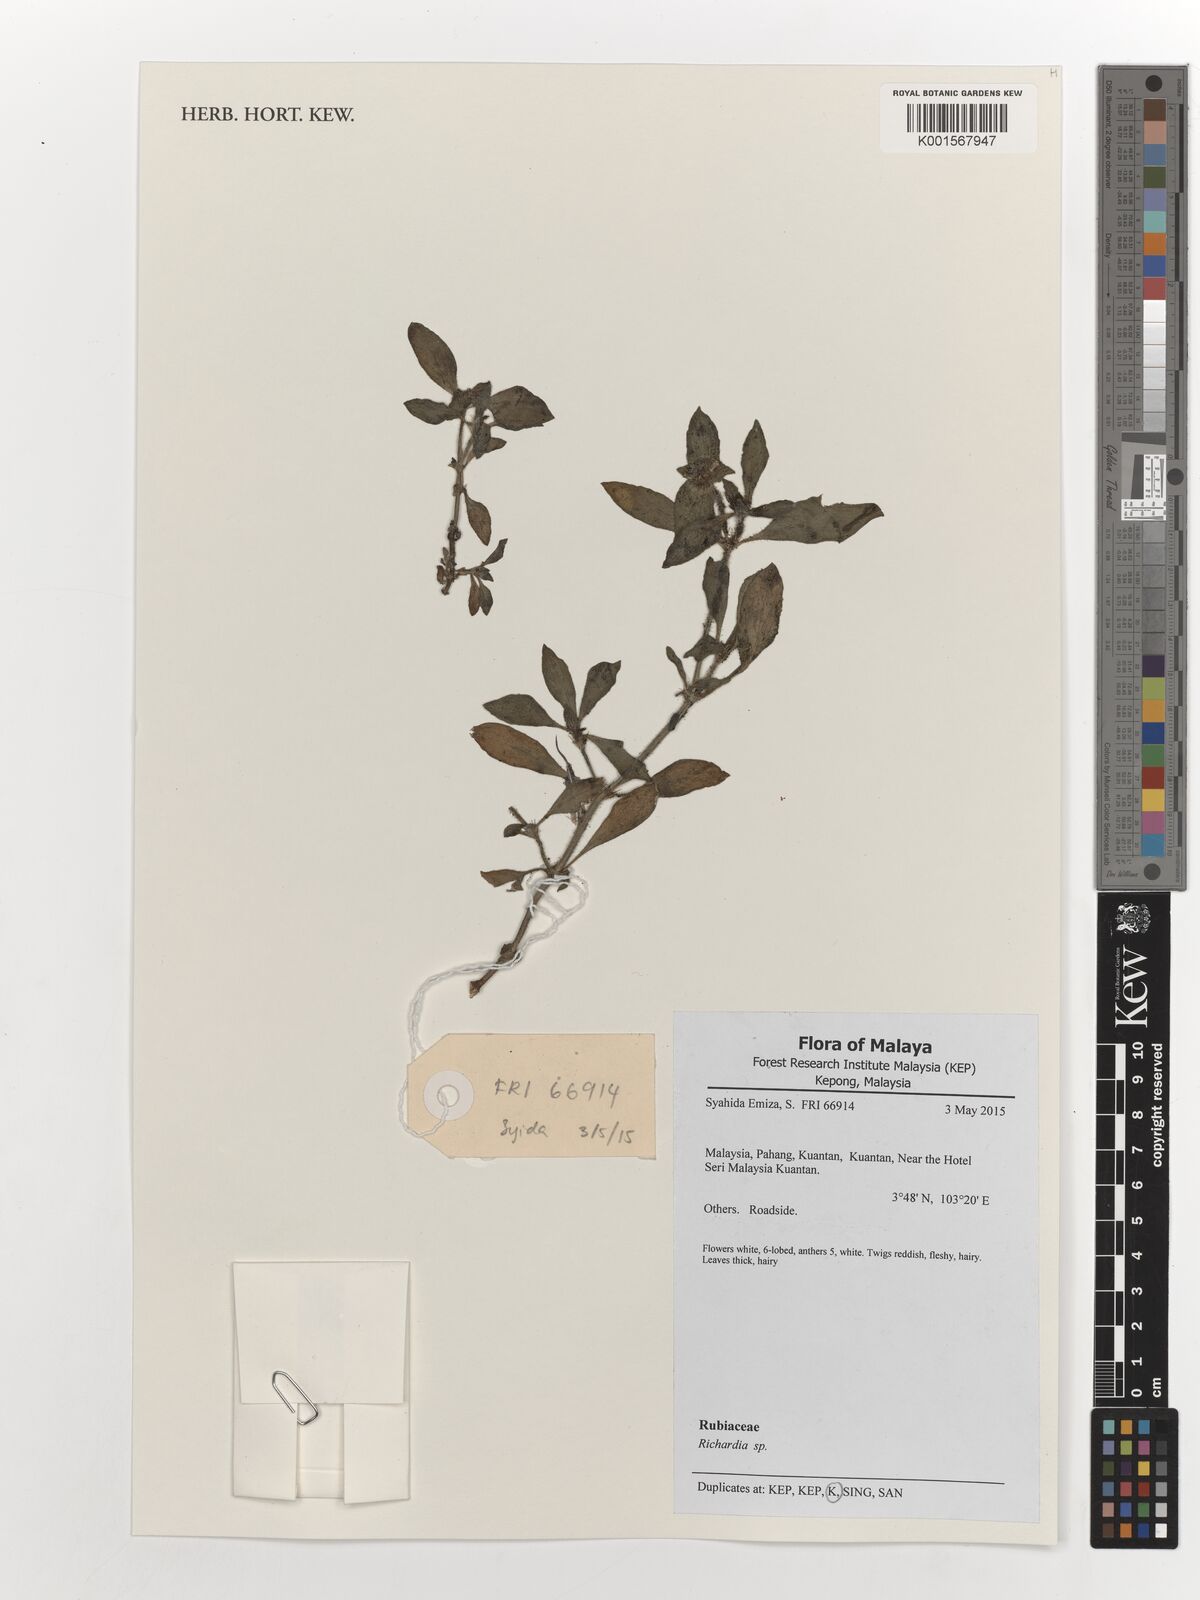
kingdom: Plantae
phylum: Tracheophyta
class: Magnoliopsida
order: Gentianales
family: Rubiaceae
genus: Richardia
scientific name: Richardia
